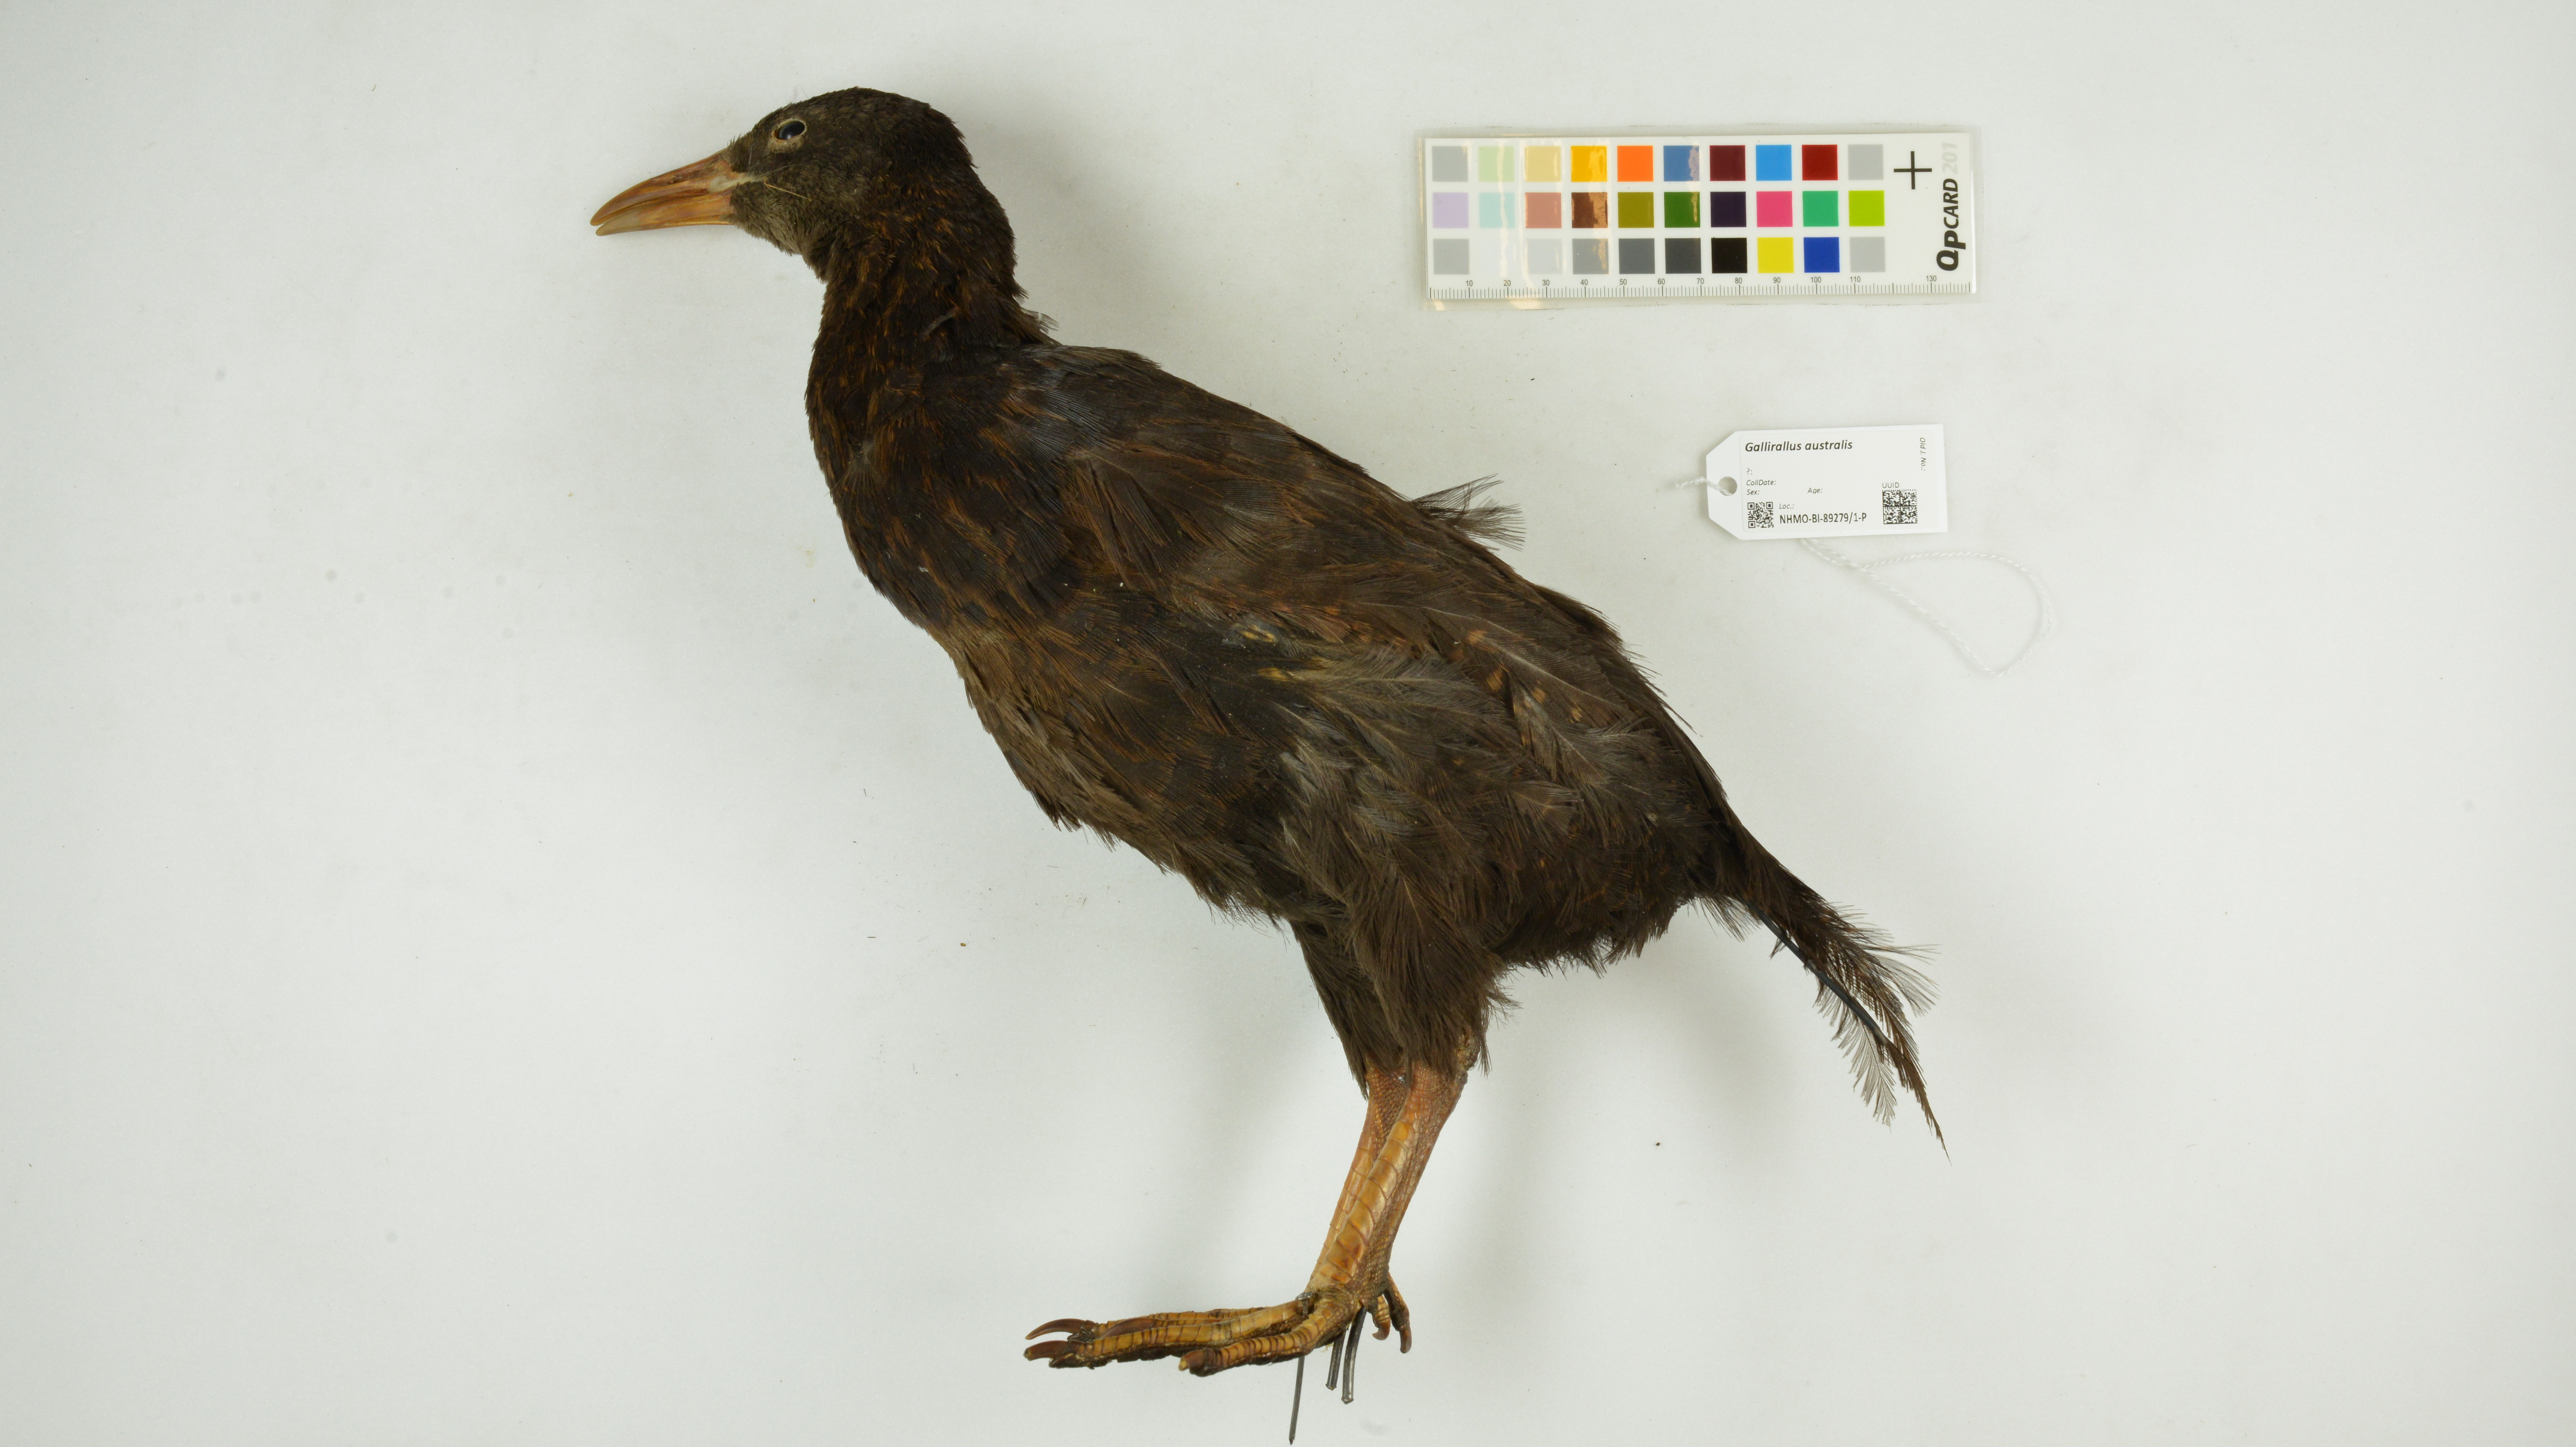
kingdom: Animalia
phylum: Chordata
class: Aves
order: Gruiformes
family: Rallidae
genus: Gallirallus
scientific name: Gallirallus australis
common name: Weka
